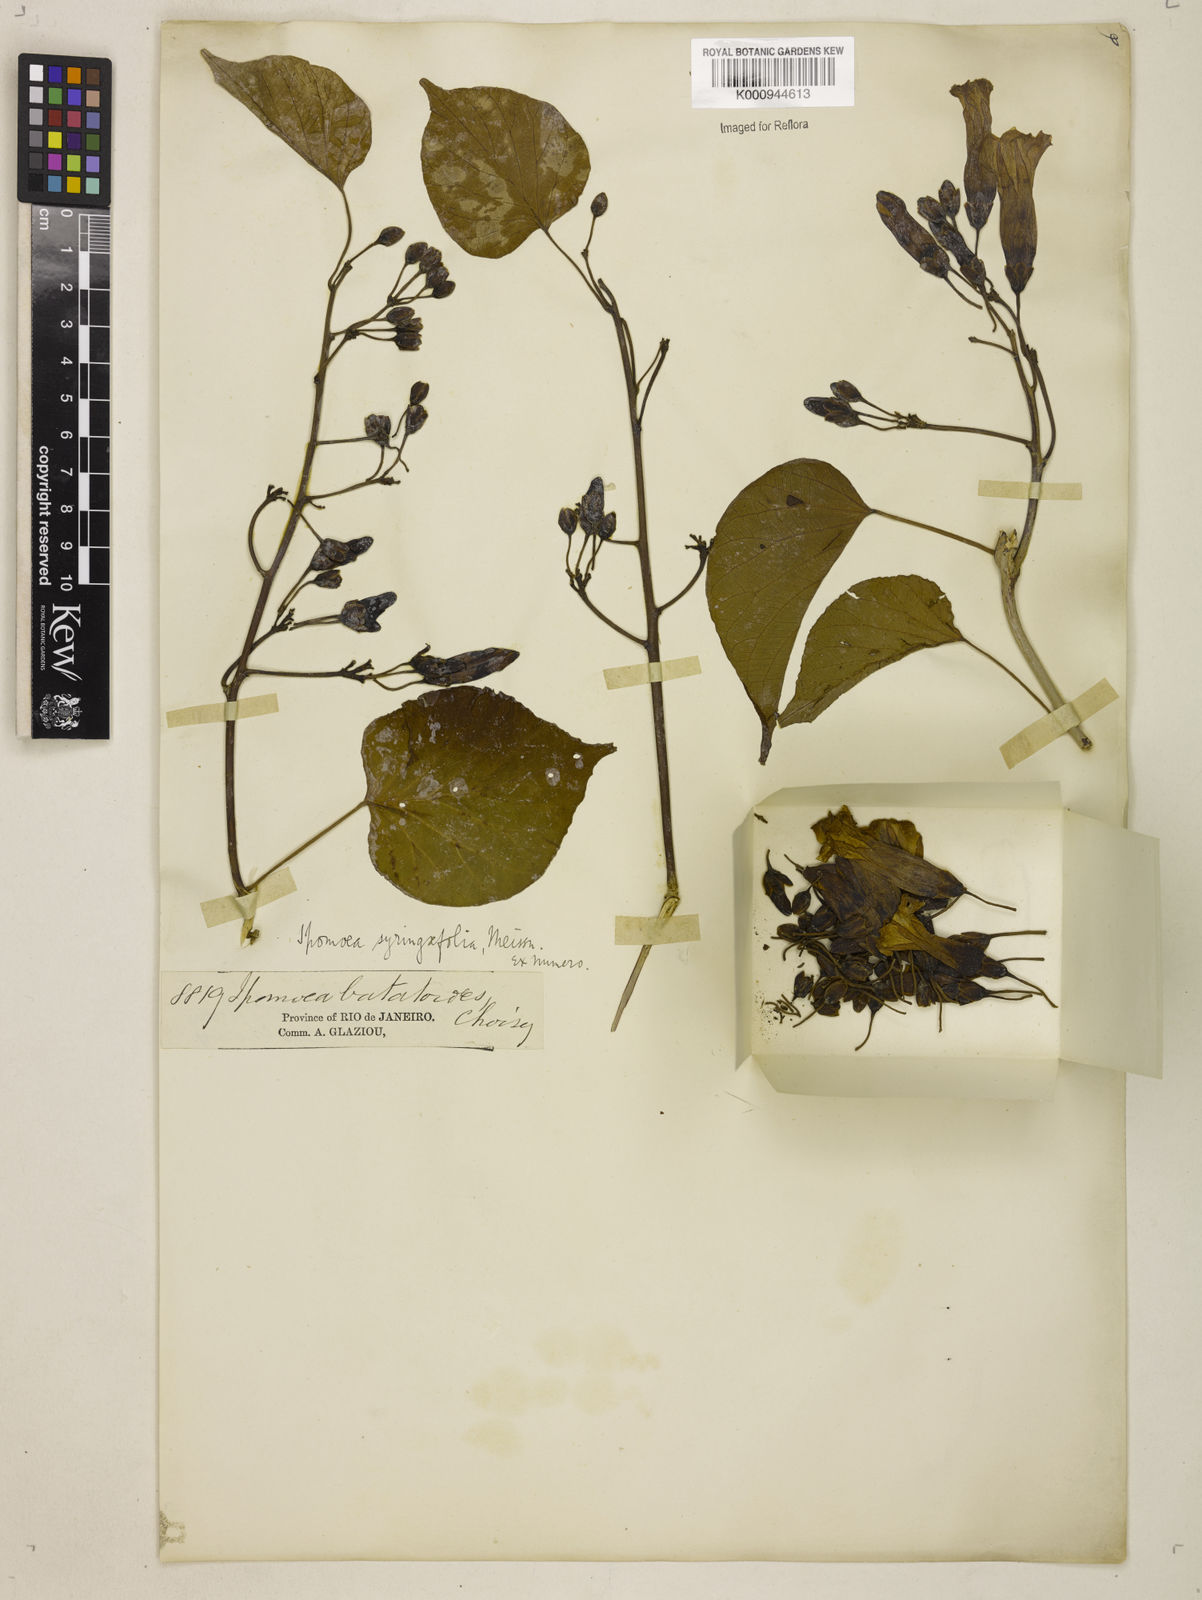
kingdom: Plantae
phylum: Tracheophyta
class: Magnoliopsida
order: Solanales
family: Convolvulaceae
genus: Ipomoea
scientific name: Ipomoea
